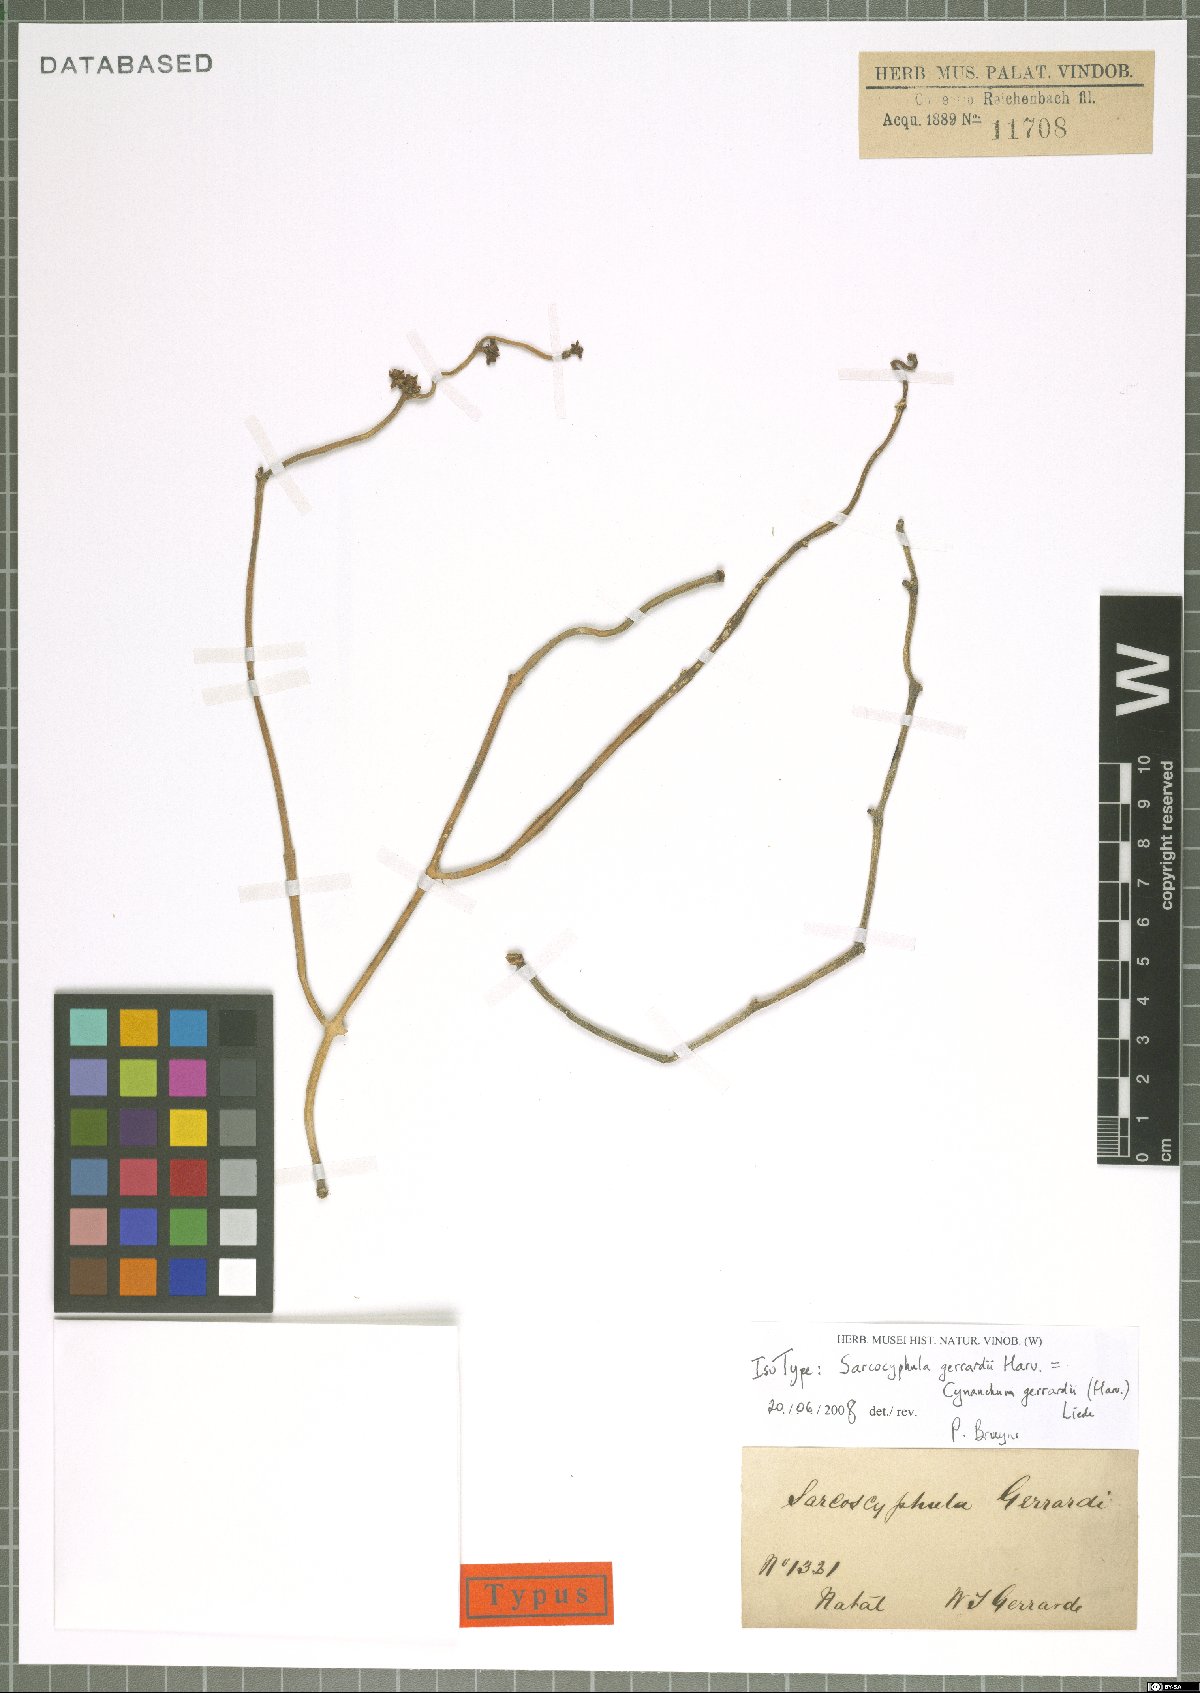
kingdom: Plantae
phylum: Tracheophyta
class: Magnoliopsida
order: Gentianales
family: Apocynaceae
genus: Cynanchum
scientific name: Cynanchum gerrardi
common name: Swallow-wort
